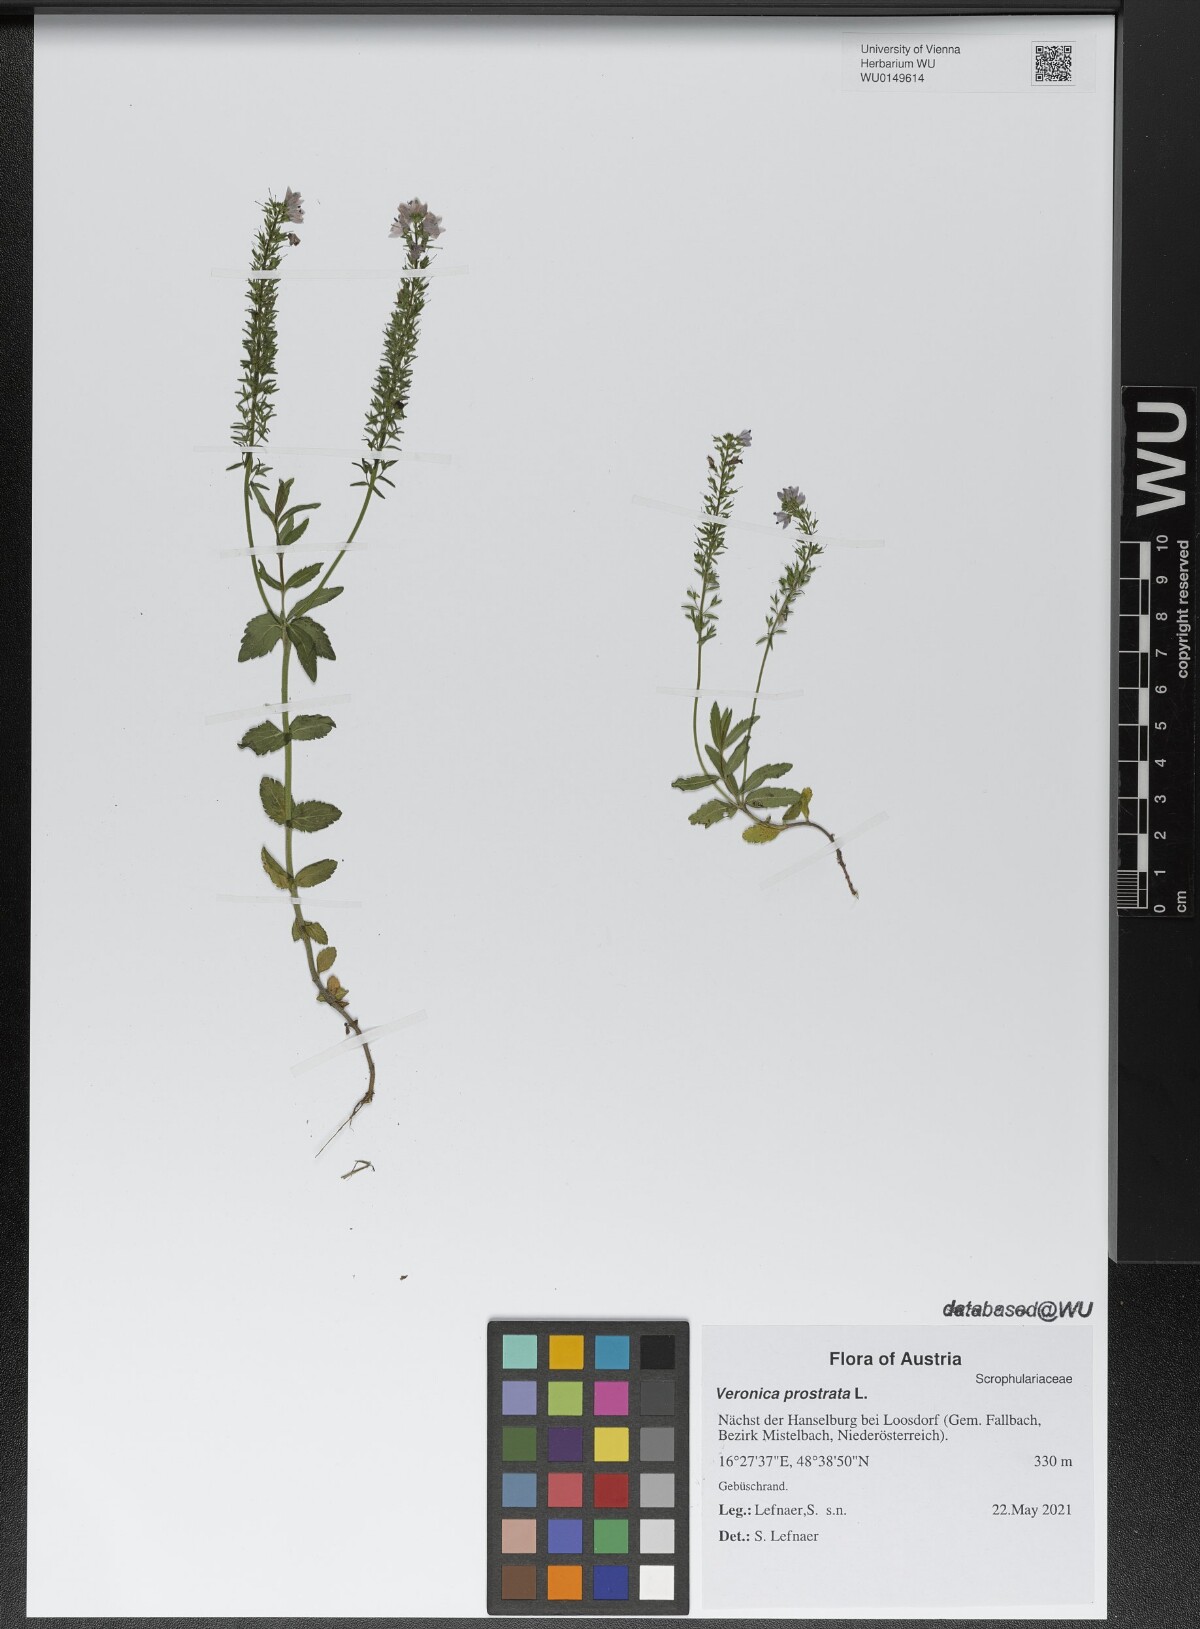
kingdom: Plantae
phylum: Tracheophyta
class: Magnoliopsida
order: Lamiales
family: Plantaginaceae
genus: Veronica
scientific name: Veronica prostrata
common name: Prostrate speedwell
